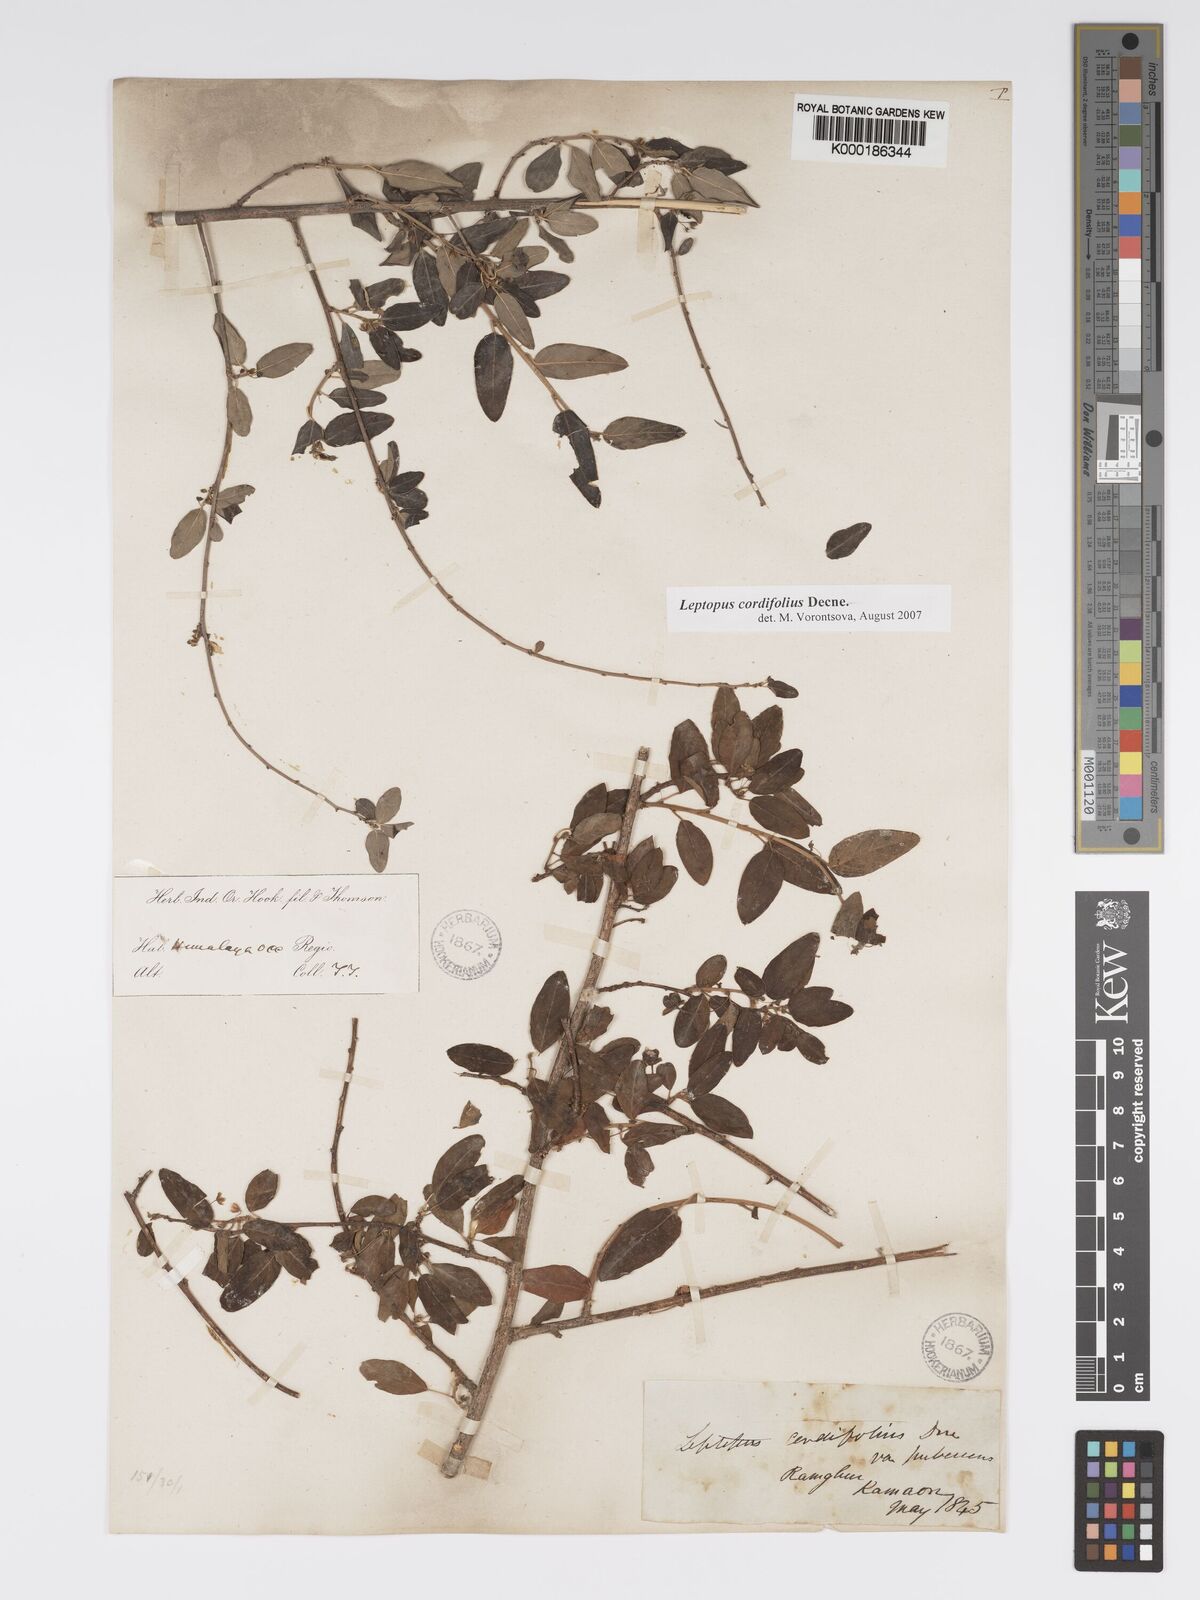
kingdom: Plantae
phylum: Tracheophyta
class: Magnoliopsida
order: Malpighiales
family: Phyllanthaceae
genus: Leptopus
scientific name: Leptopus cordifolius
